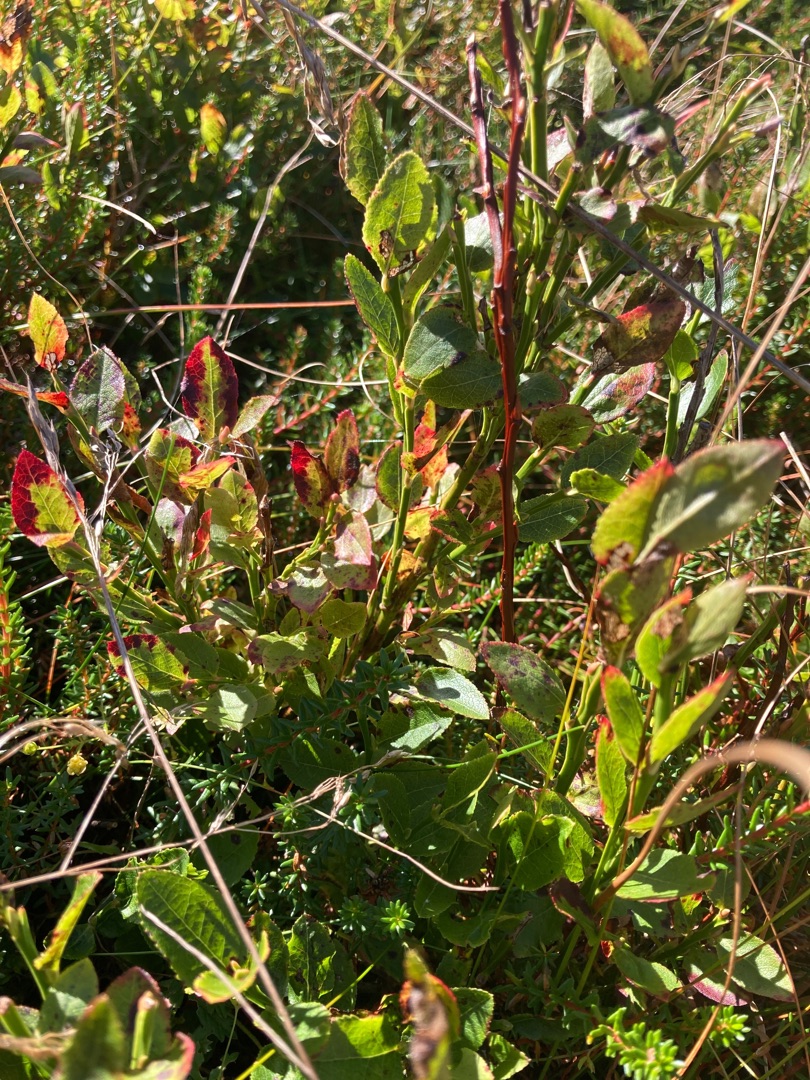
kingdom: Plantae
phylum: Tracheophyta
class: Magnoliopsida
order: Ericales
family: Ericaceae
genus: Vaccinium
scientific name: Vaccinium myrtillus
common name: Blåbær
